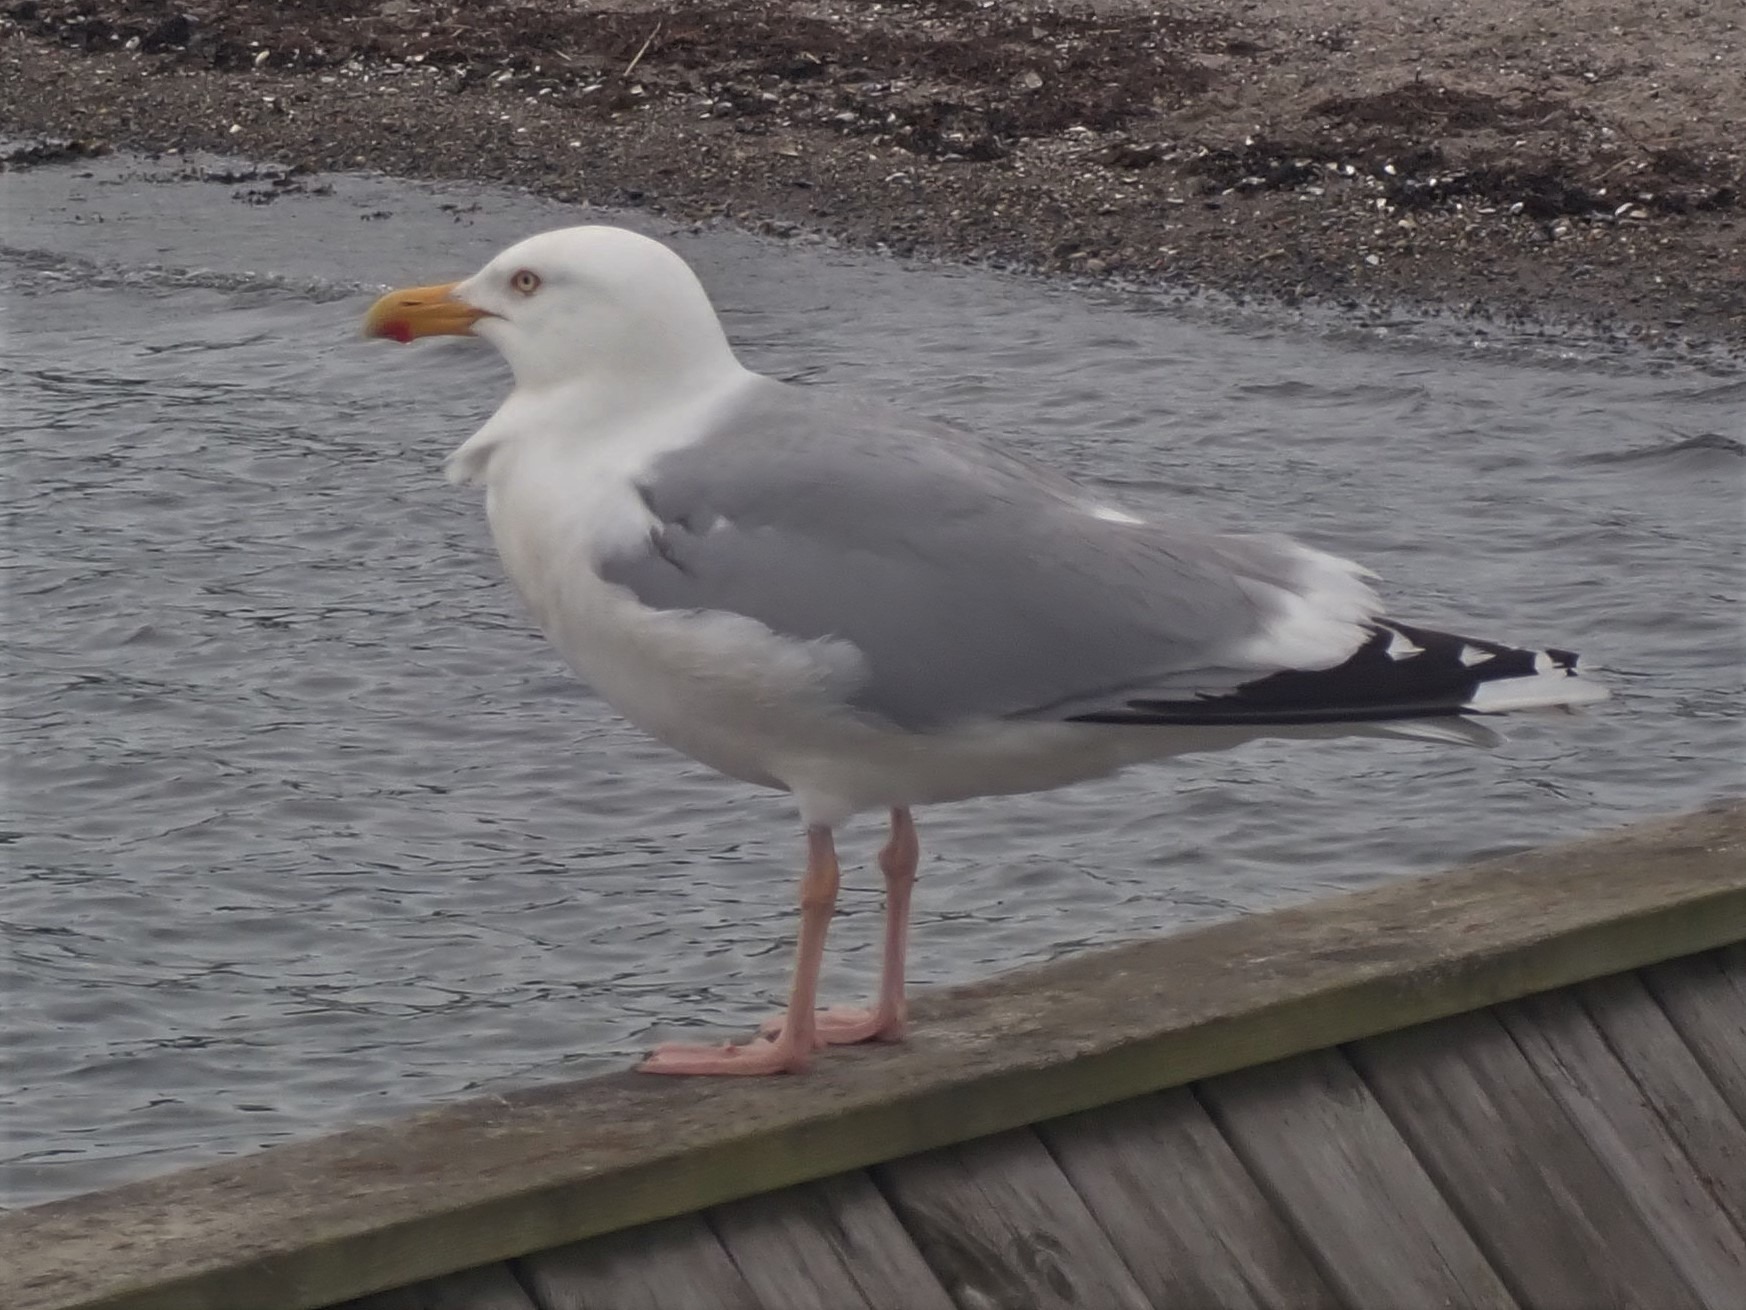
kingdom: Animalia
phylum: Chordata
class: Aves
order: Charadriiformes
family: Laridae
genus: Larus
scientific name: Larus argentatus
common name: Sølvmåge
